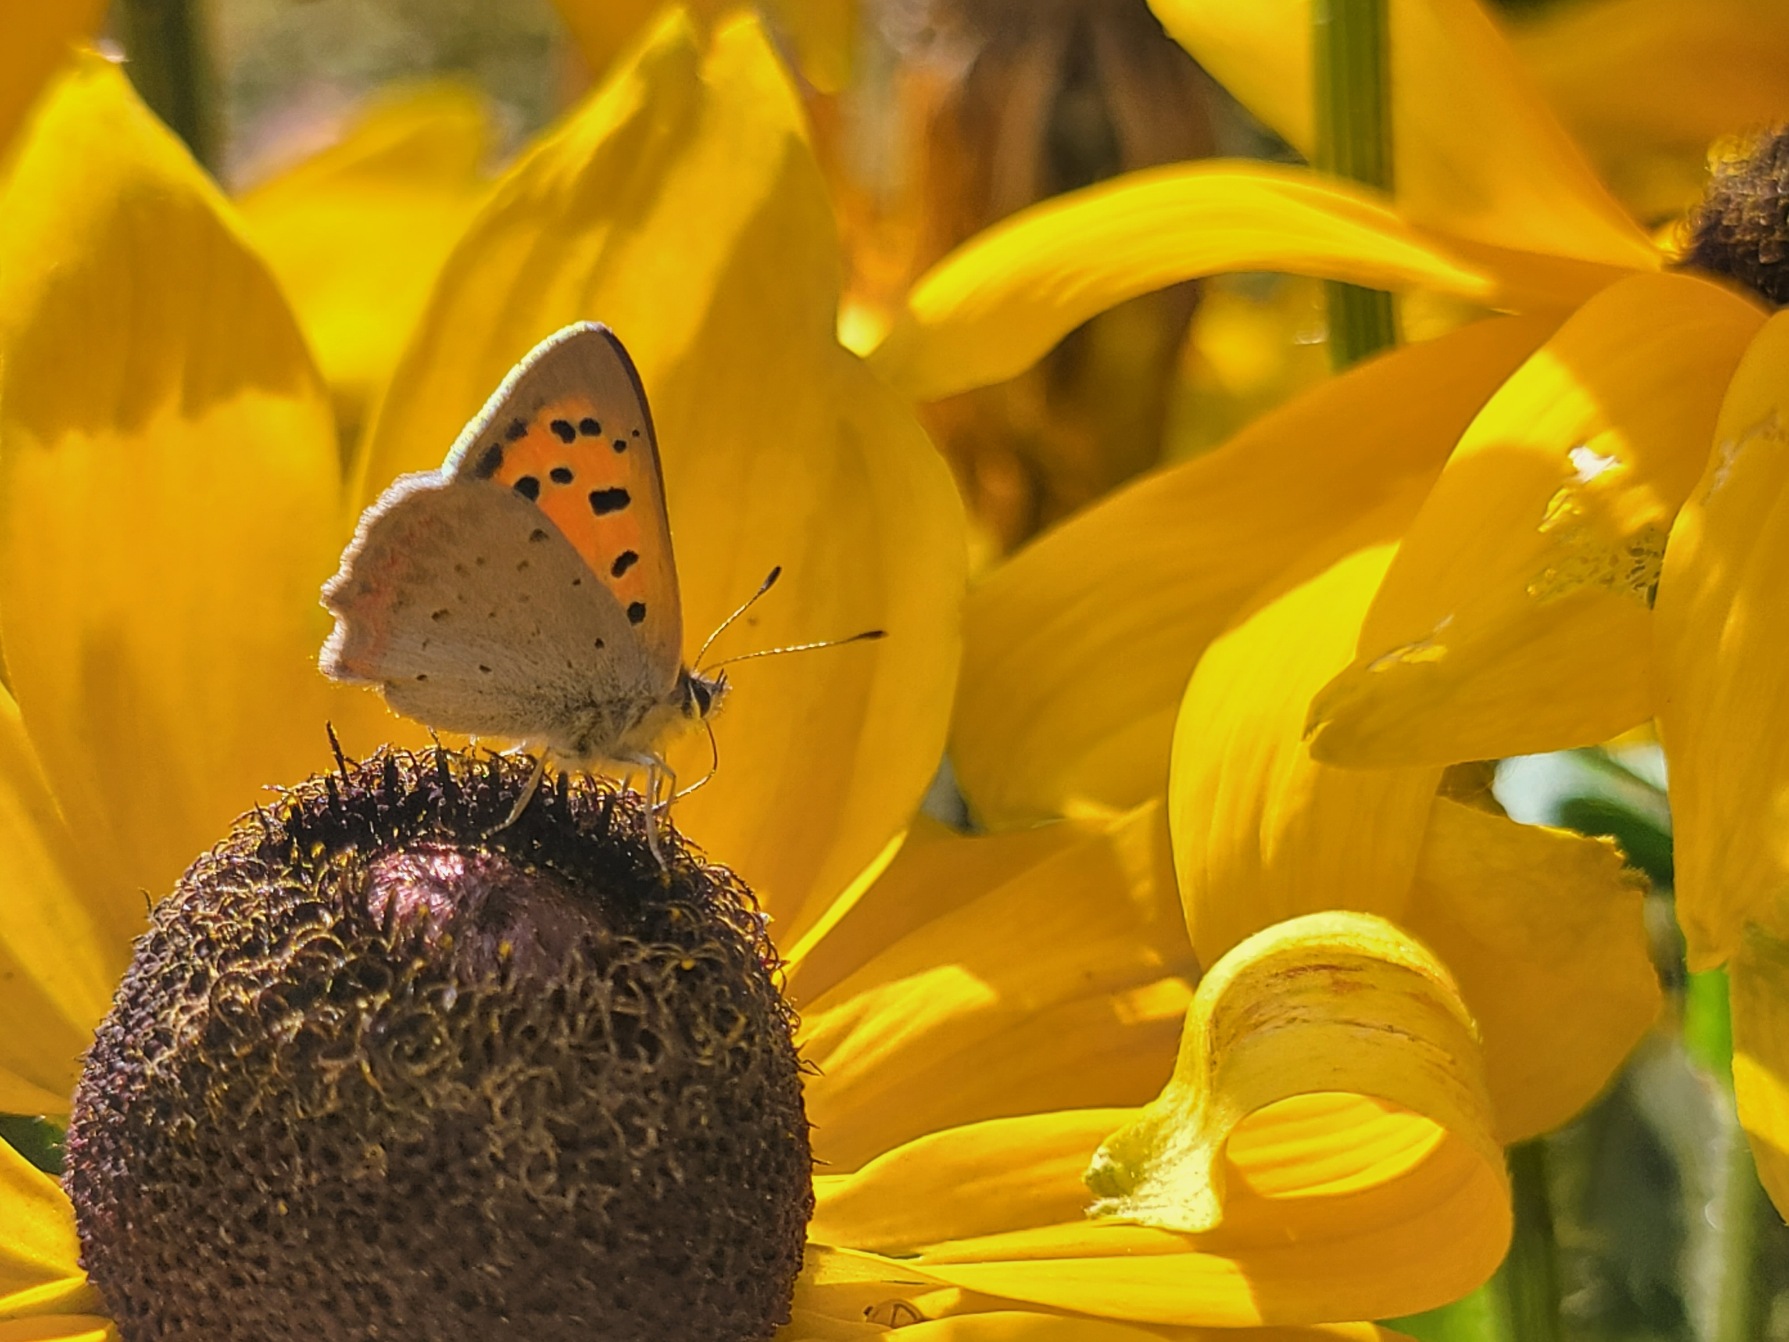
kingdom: Animalia
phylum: Arthropoda
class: Insecta
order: Lepidoptera
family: Lycaenidae
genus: Lycaena
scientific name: Lycaena phlaeas
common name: Lille ildfugl
